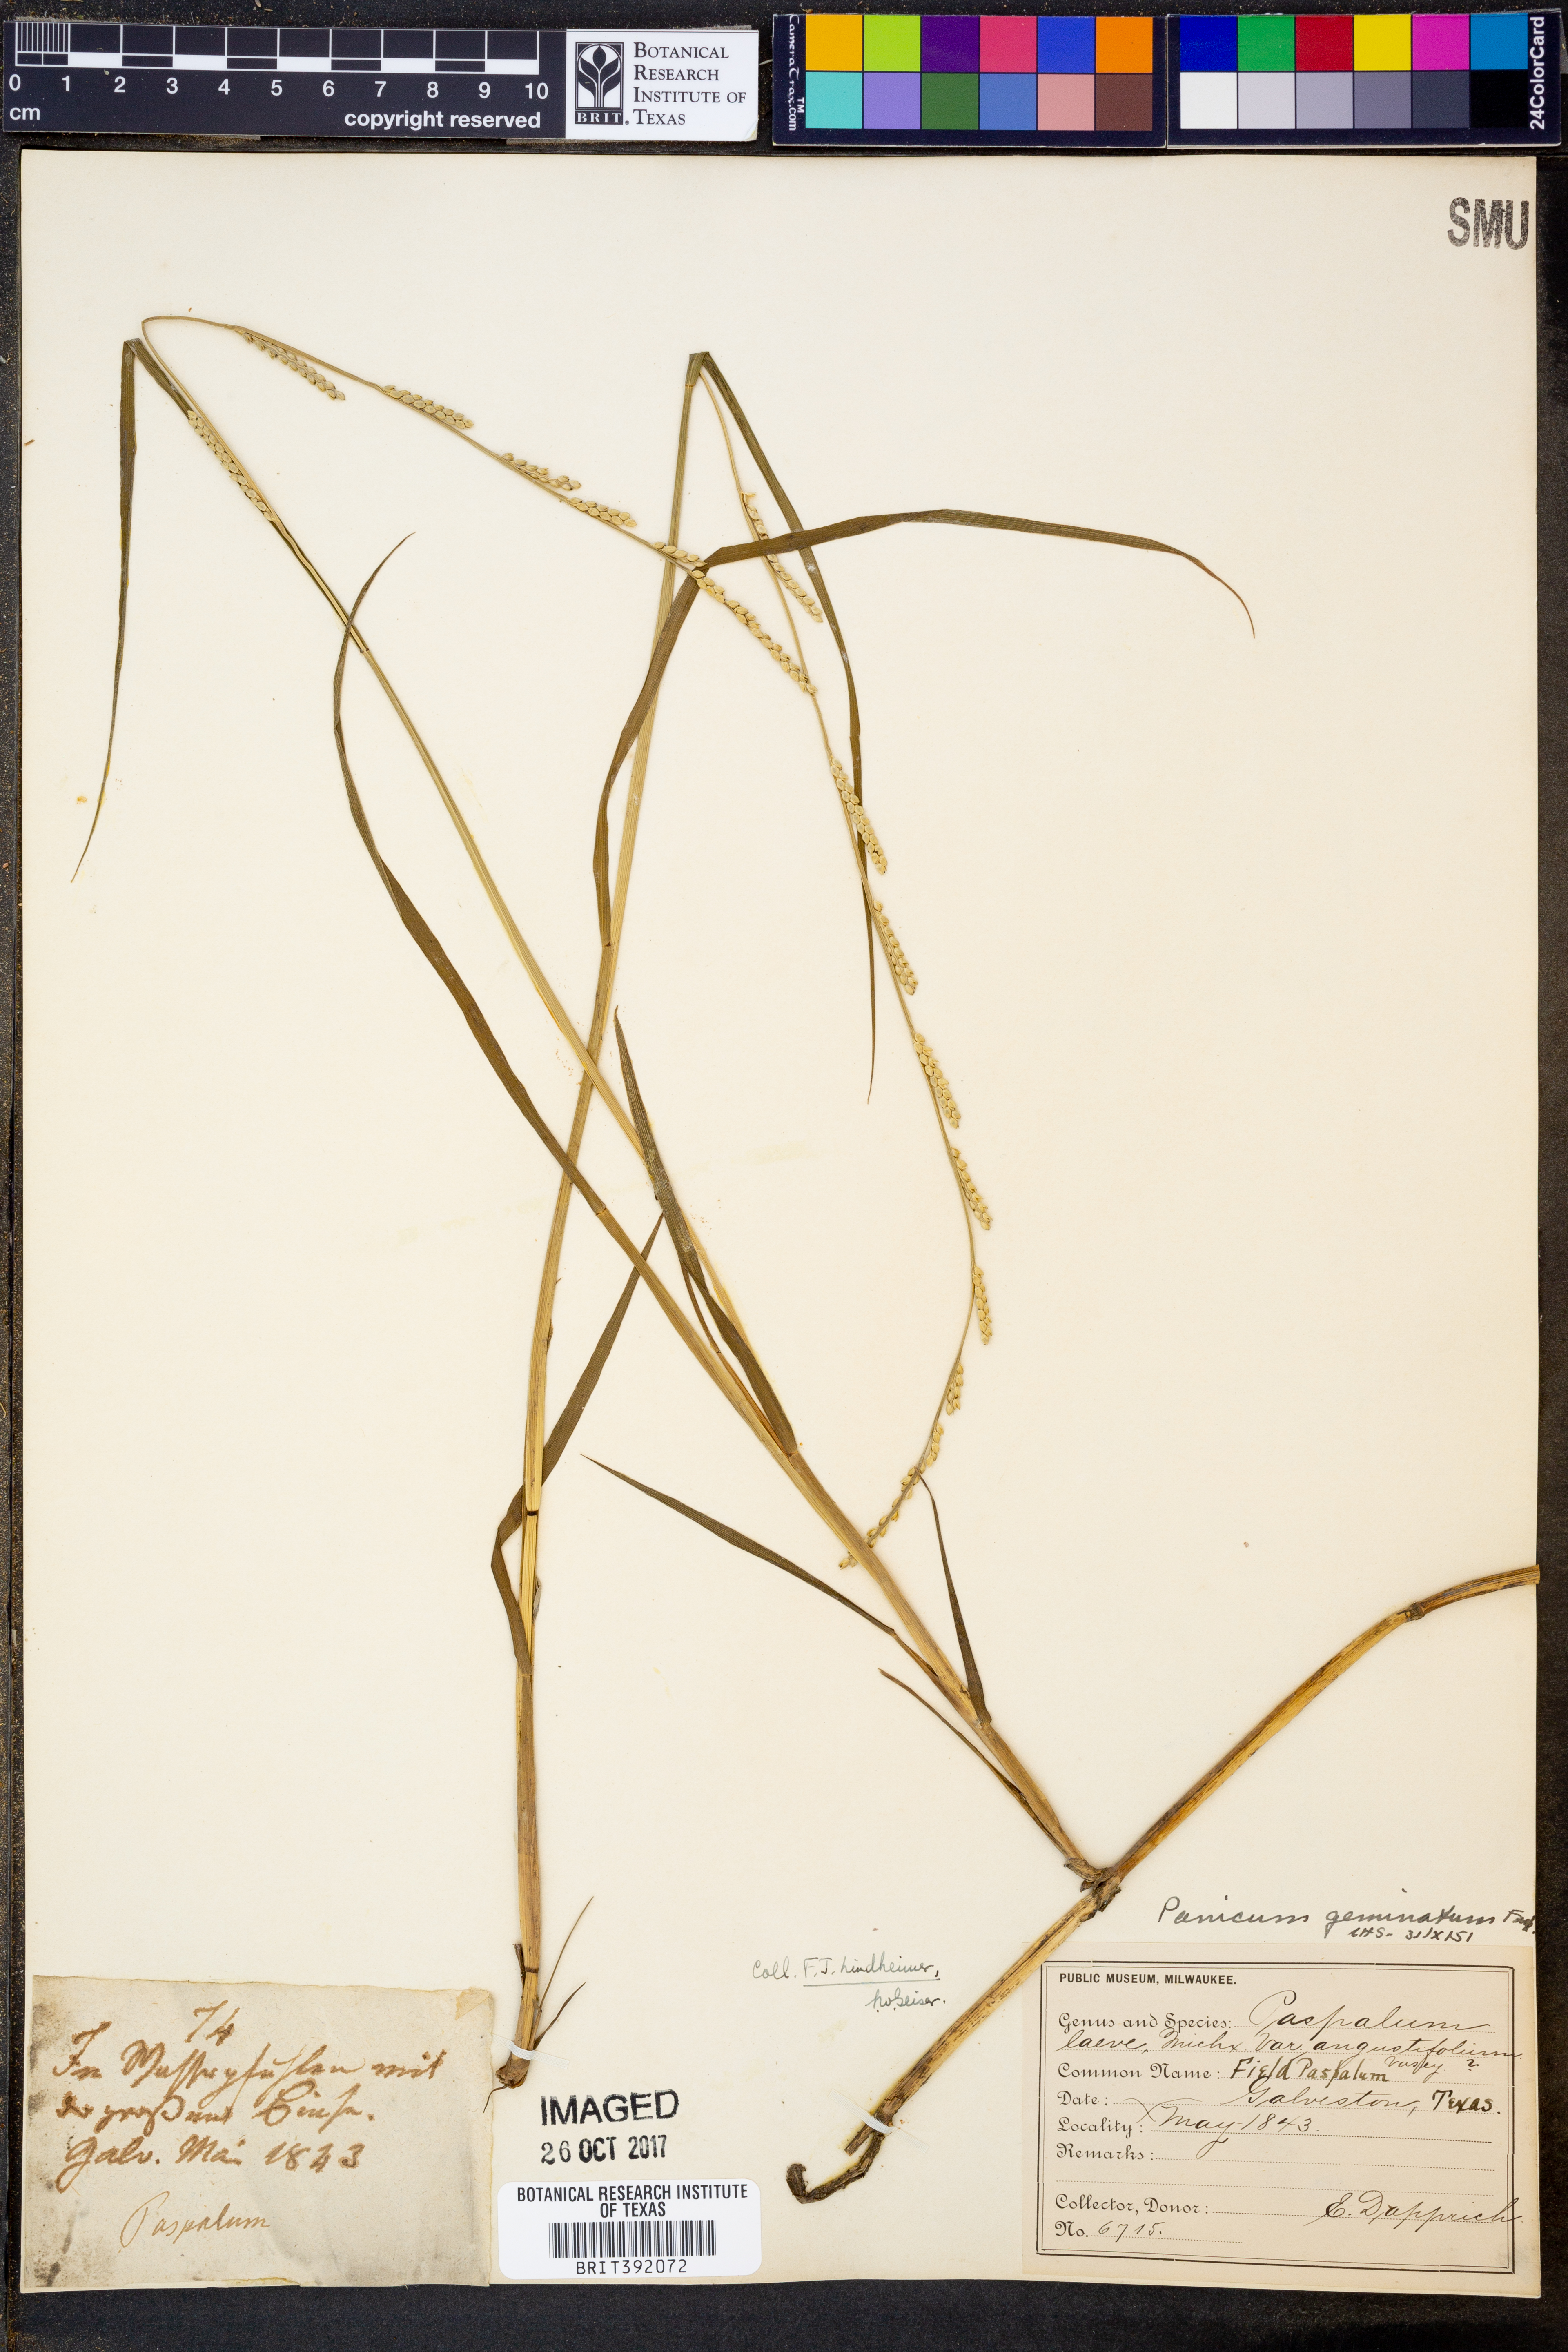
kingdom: Plantae
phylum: Tracheophyta
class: Liliopsida
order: Poales
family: Poaceae
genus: Setaria
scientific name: Setaria geminata
